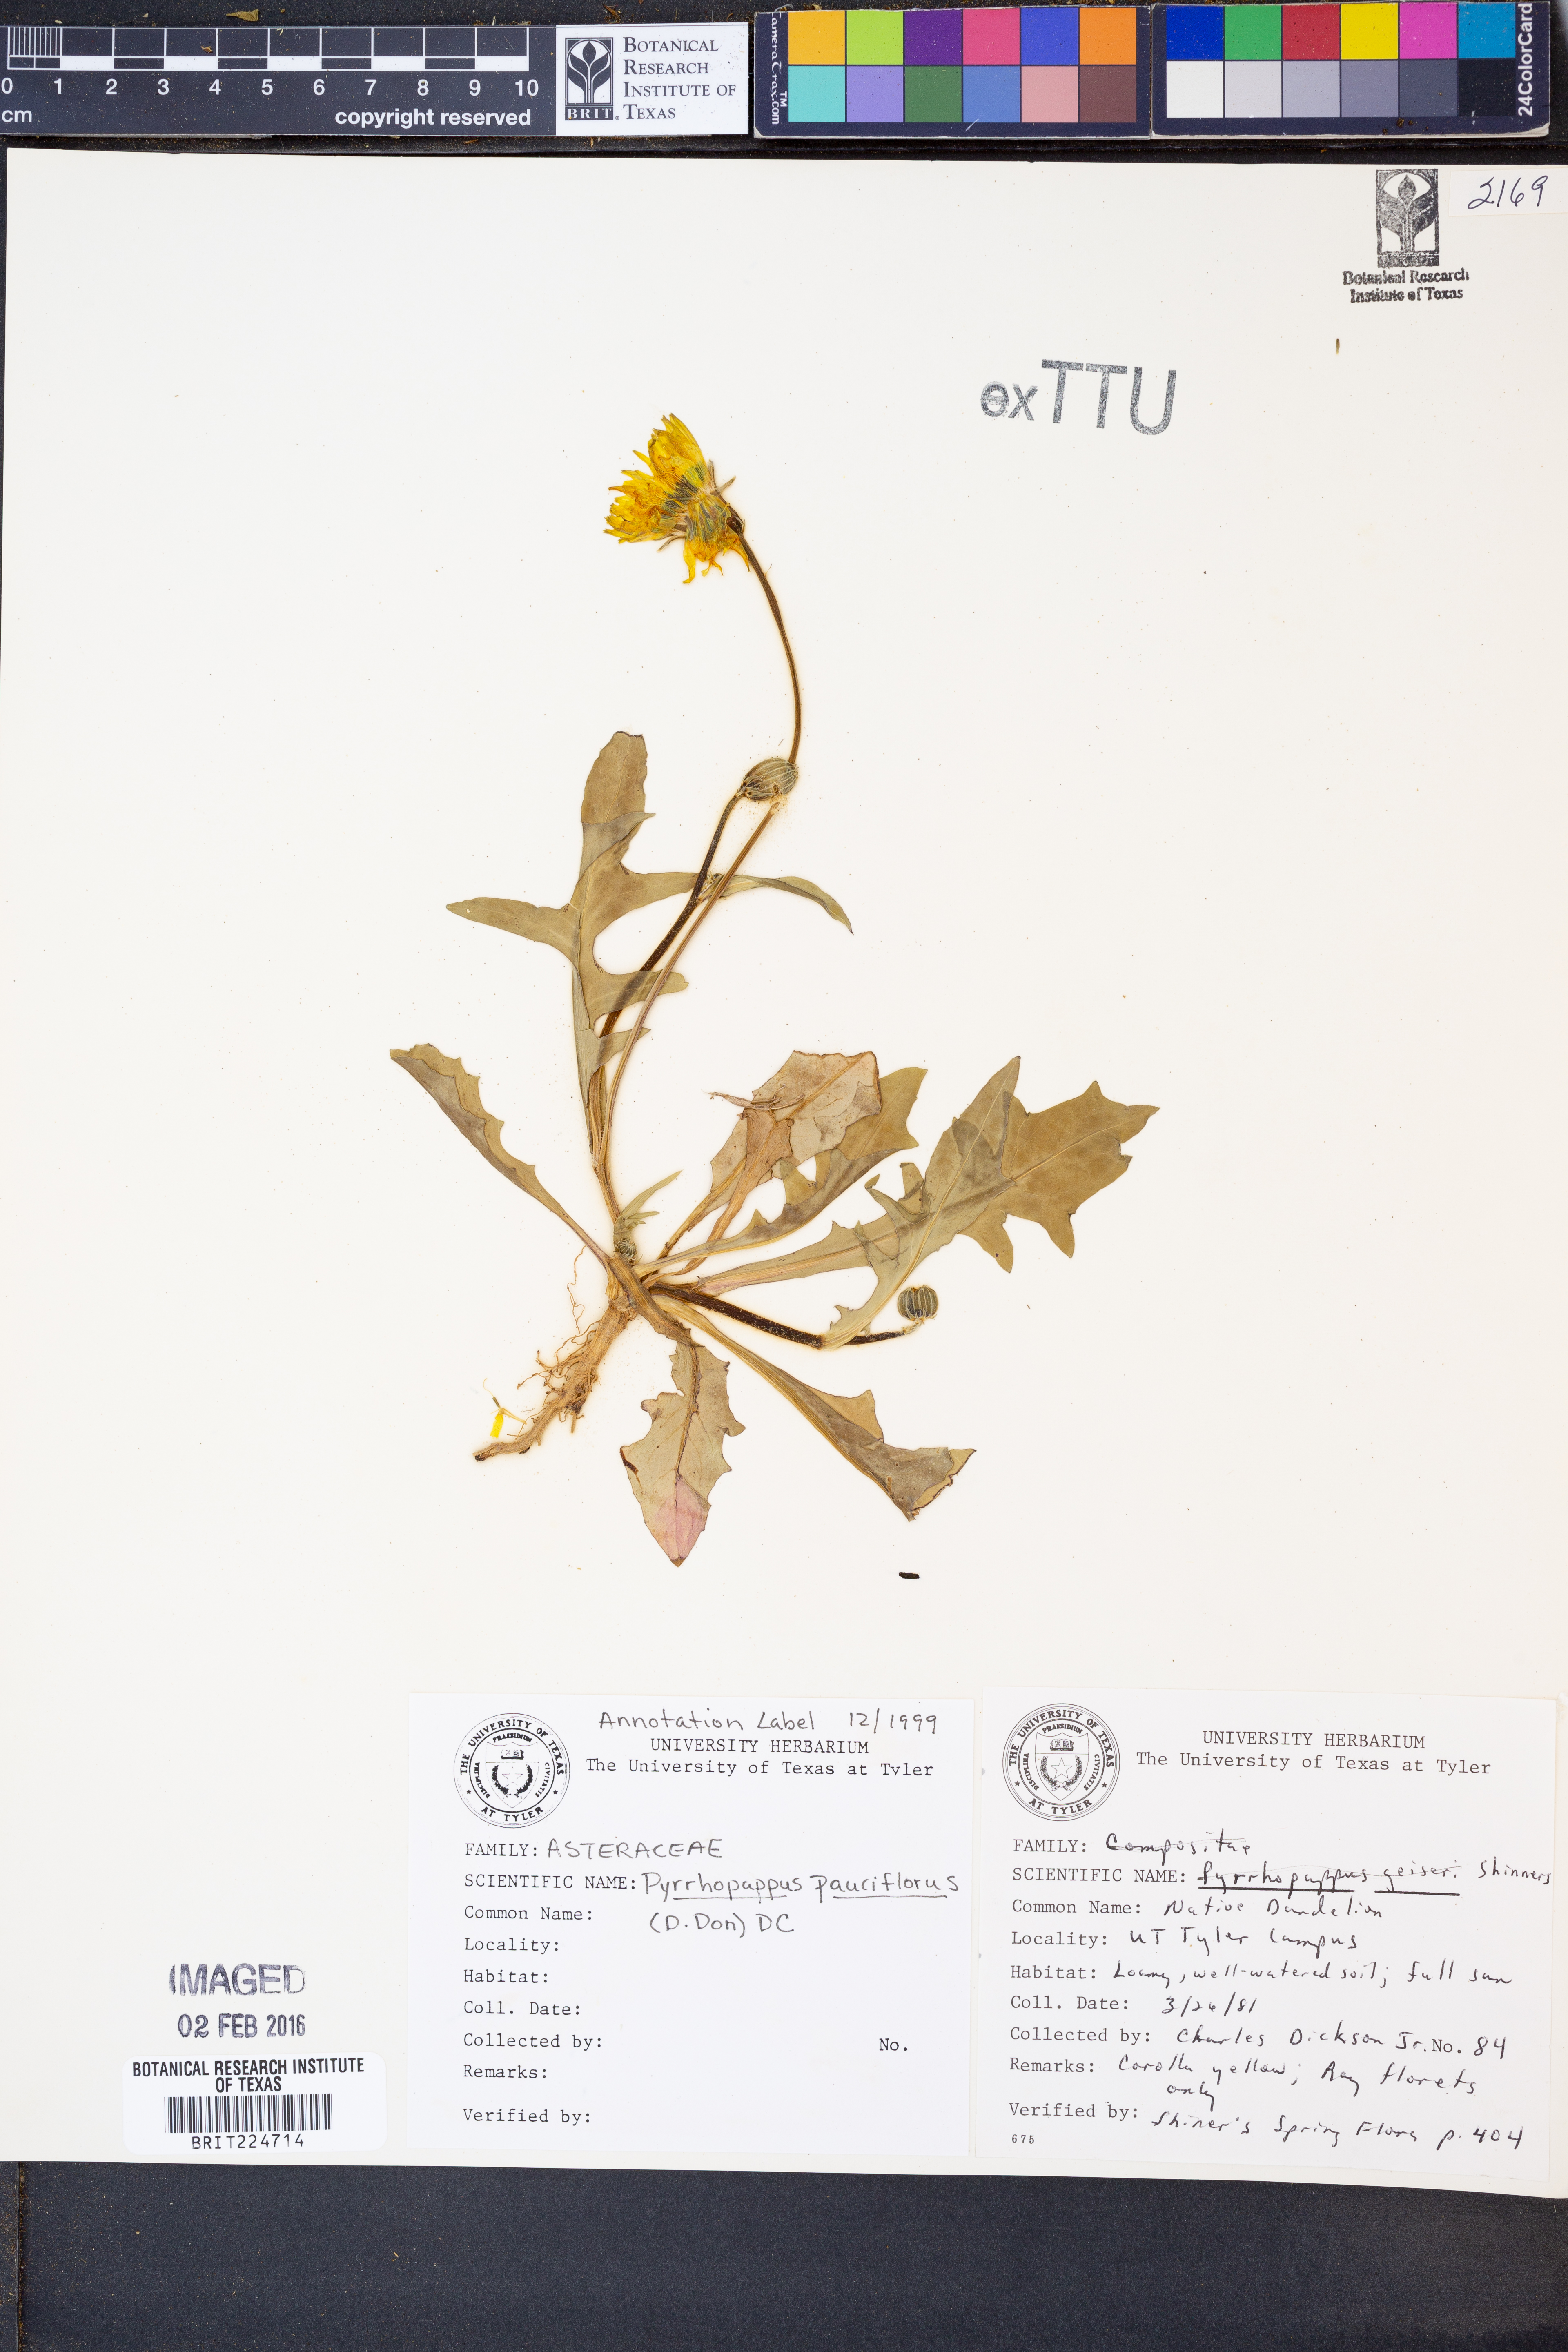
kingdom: Plantae
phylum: Tracheophyta
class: Magnoliopsida
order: Asterales
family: Asteraceae
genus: Pyrrhopappus
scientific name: Pyrrhopappus pauciflorus
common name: Texas false dandelion
